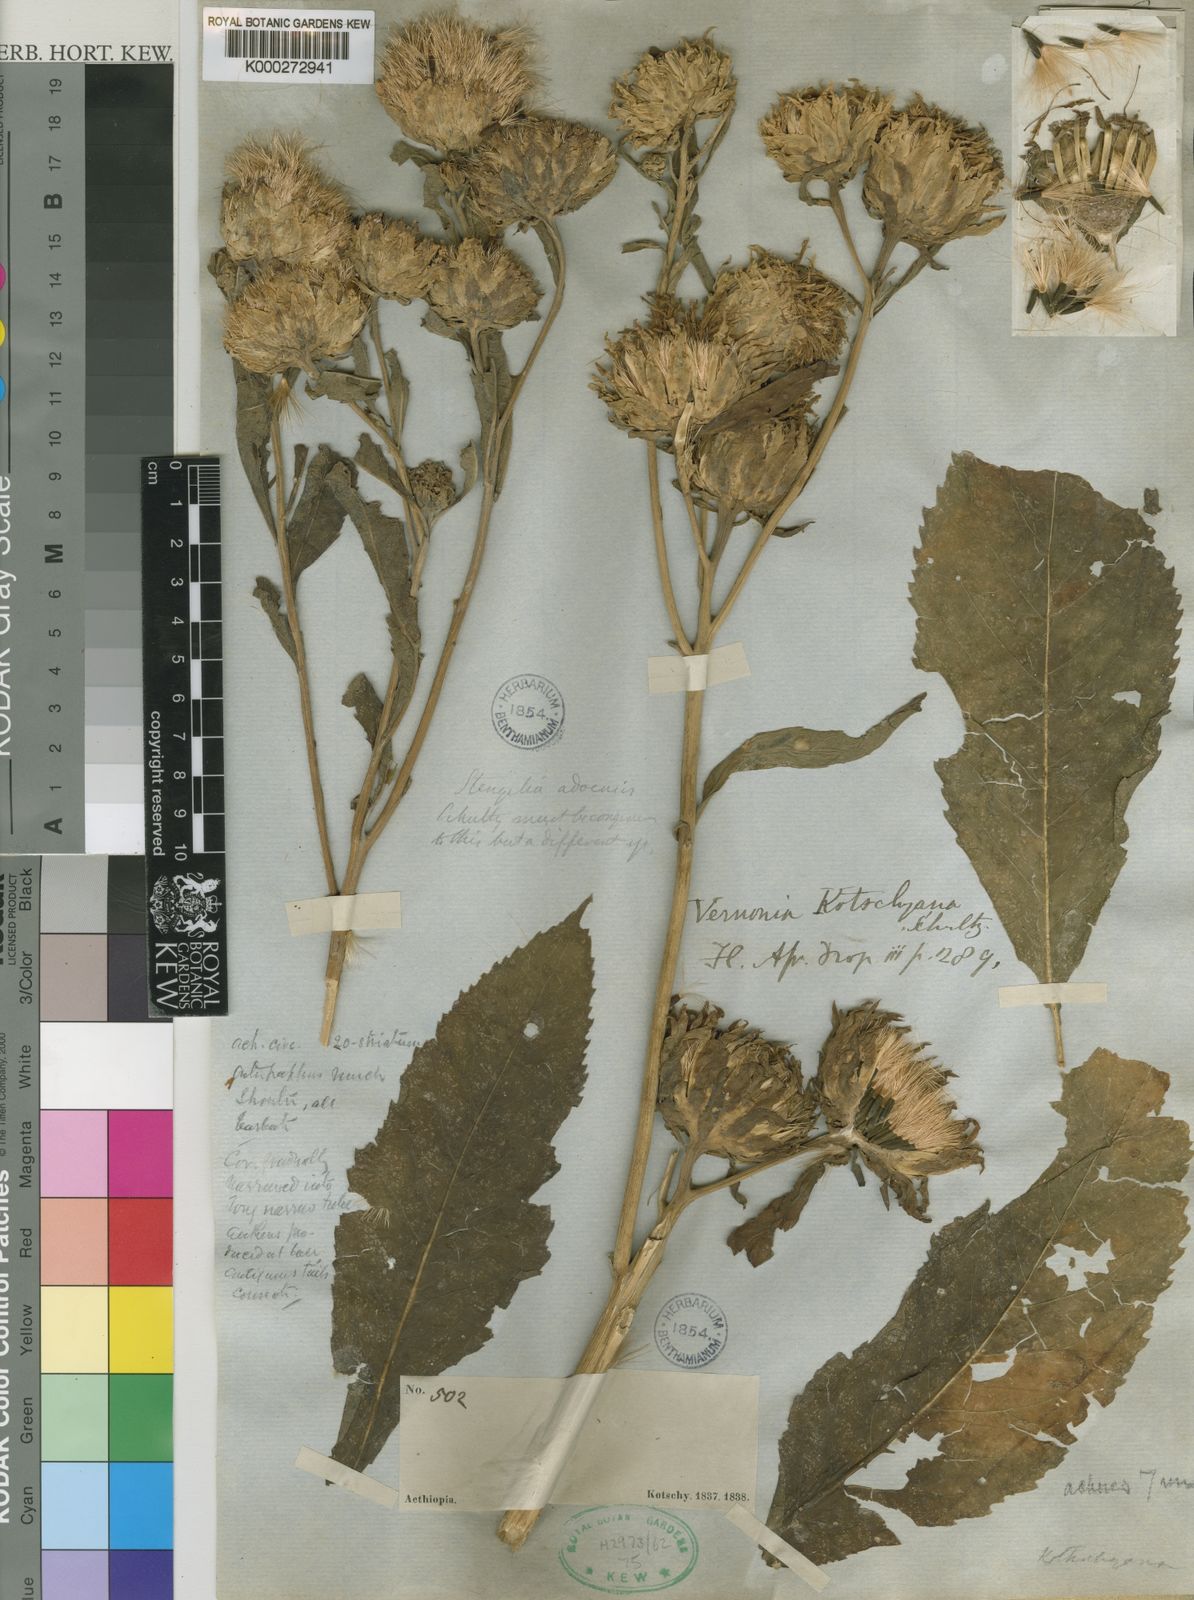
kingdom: Plantae
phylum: Tracheophyta
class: Magnoliopsida
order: Asterales
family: Asteraceae
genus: Baccharoides
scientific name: Baccharoides adoensis
